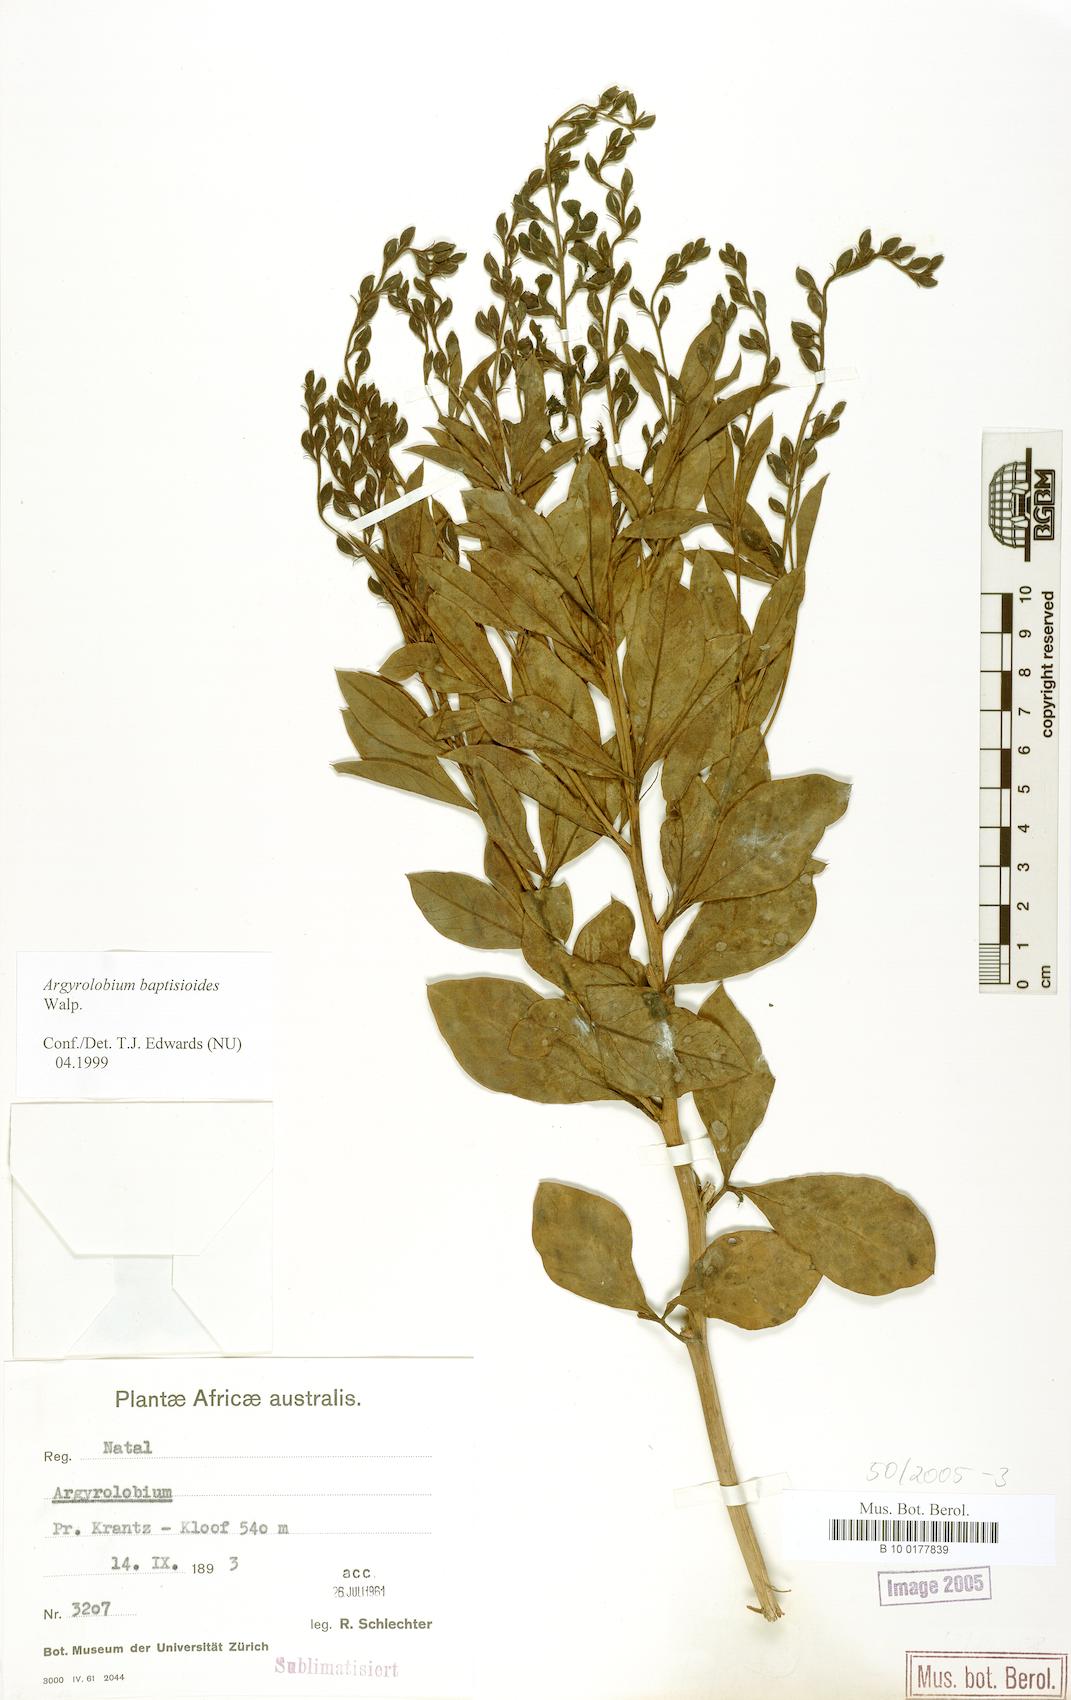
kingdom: Plantae
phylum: Tracheophyta
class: Magnoliopsida
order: Fabales
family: Fabaceae
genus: Argyrolobium
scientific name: Argyrolobium baptisioides
